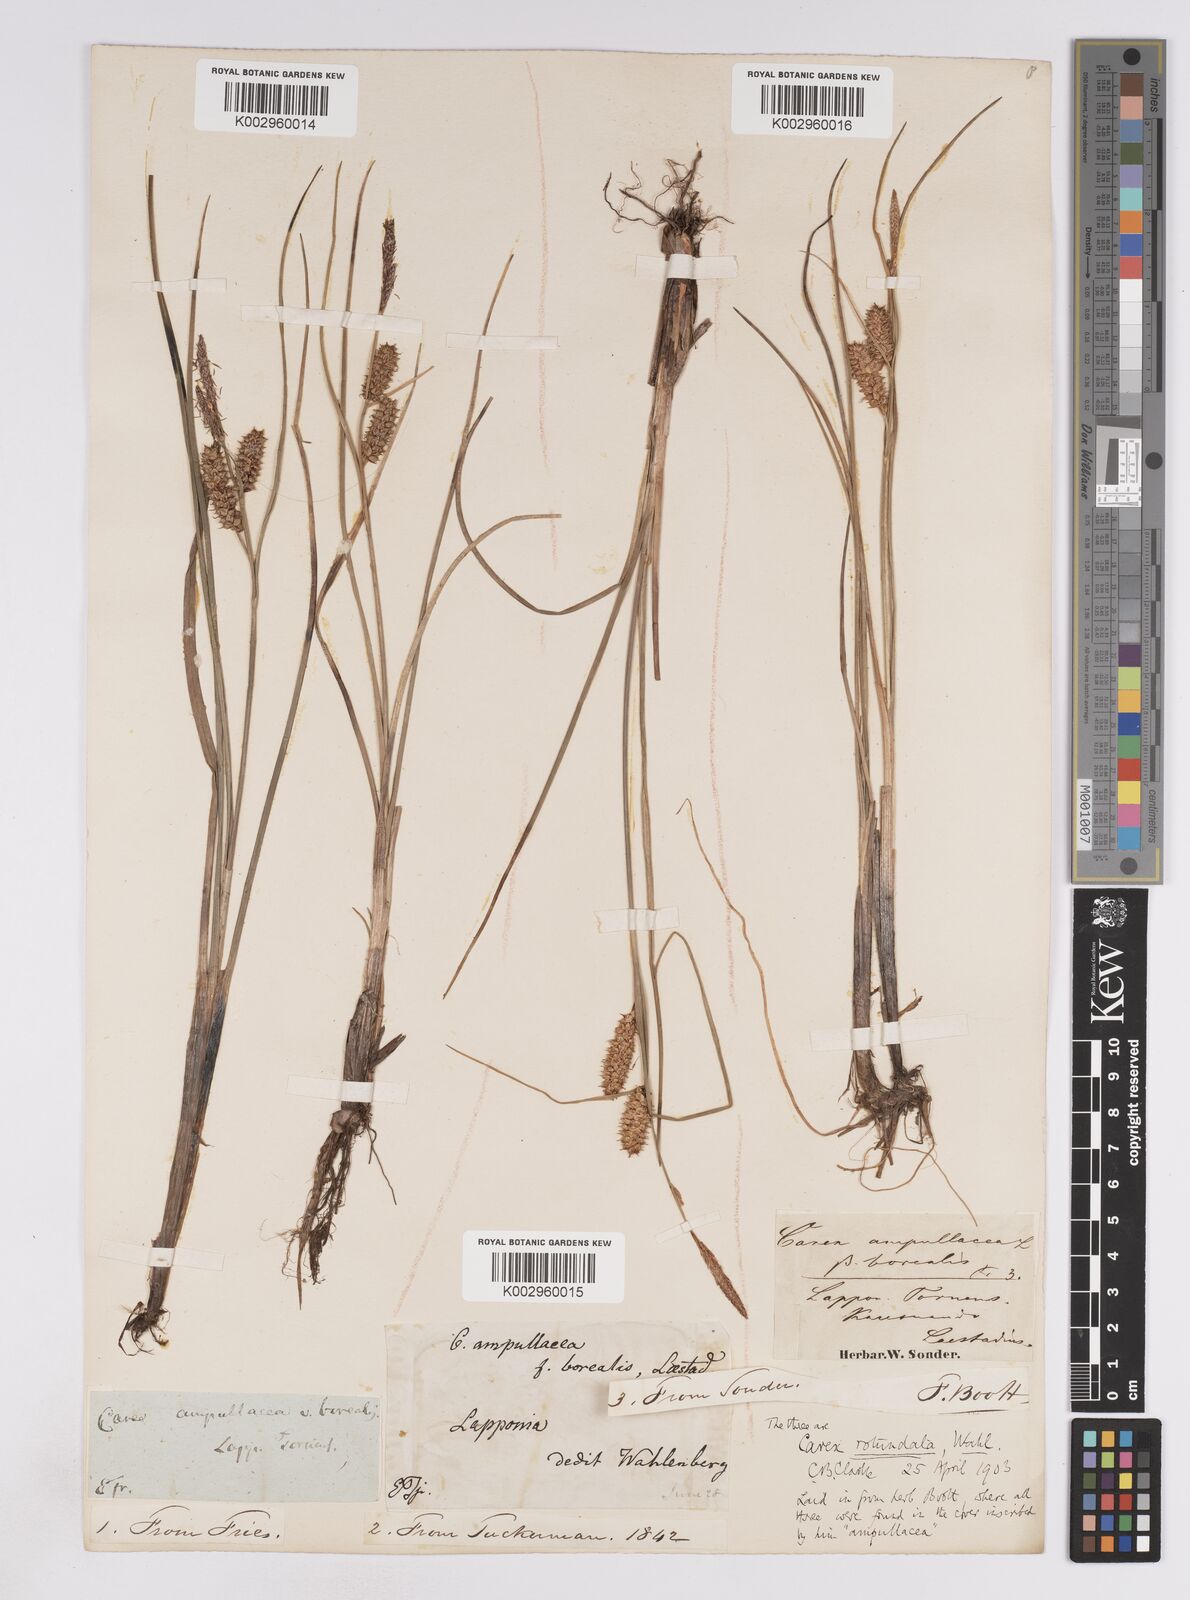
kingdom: Plantae
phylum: Tracheophyta
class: Liliopsida
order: Poales
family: Cyperaceae
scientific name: Cyperaceae
